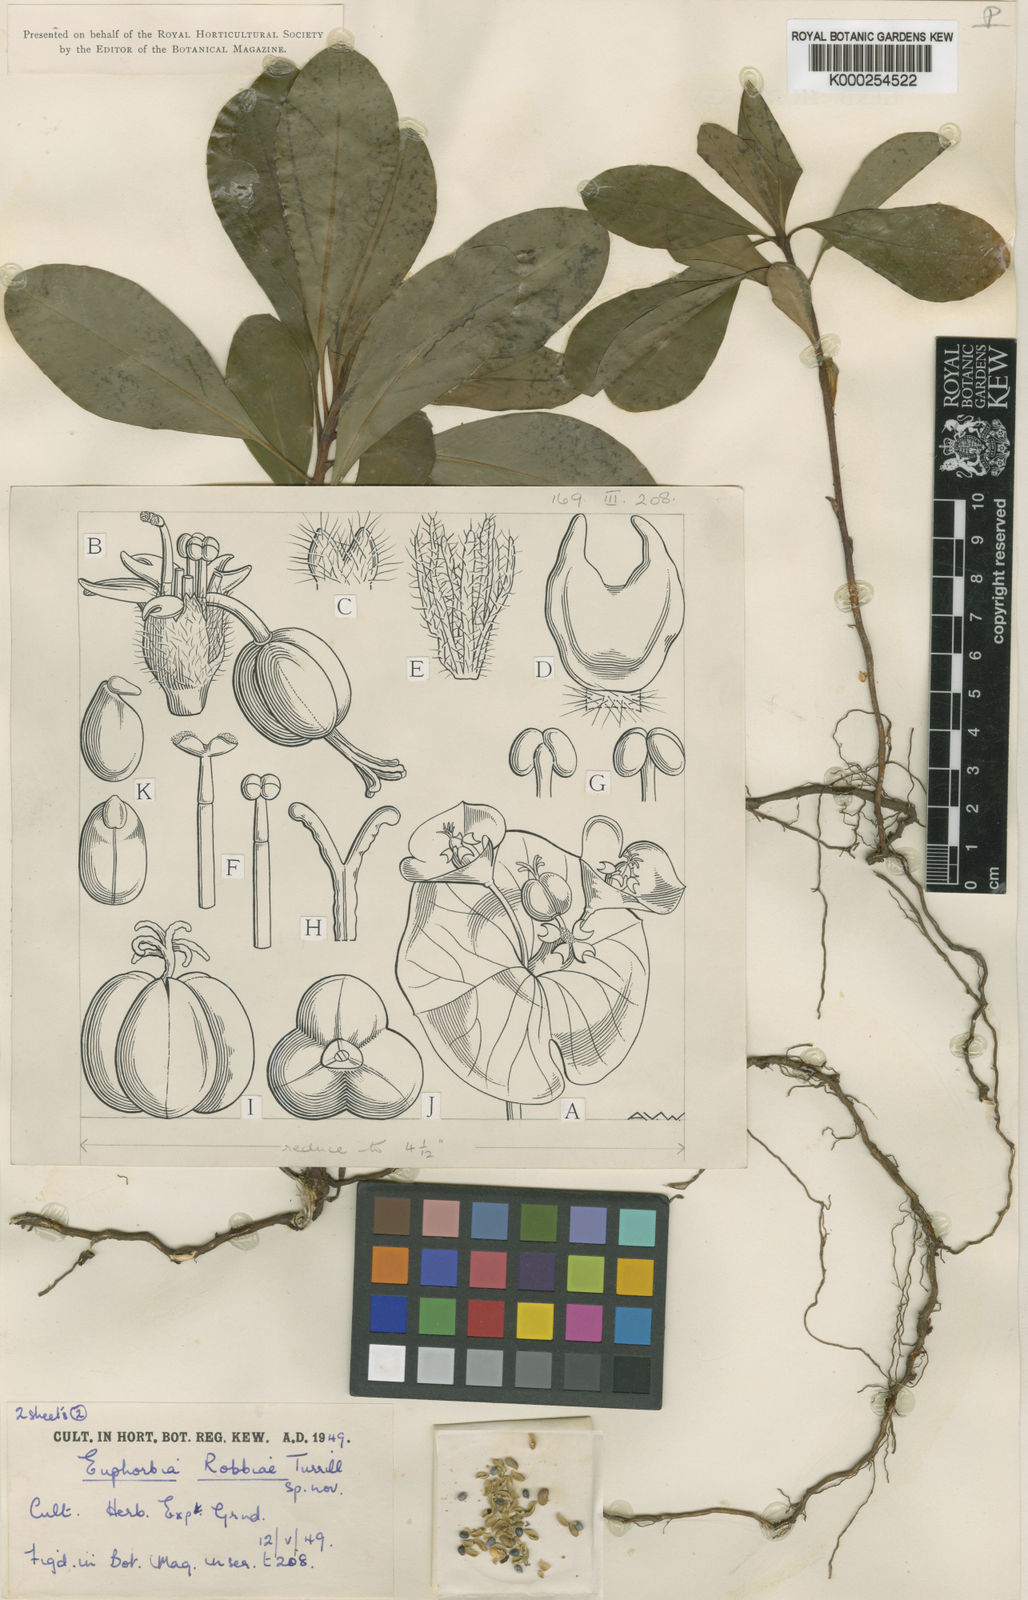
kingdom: Plantae
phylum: Tracheophyta
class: Magnoliopsida
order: Malpighiales
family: Euphorbiaceae
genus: Euphorbia
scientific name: Euphorbia amygdaloides
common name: Wood spurge
